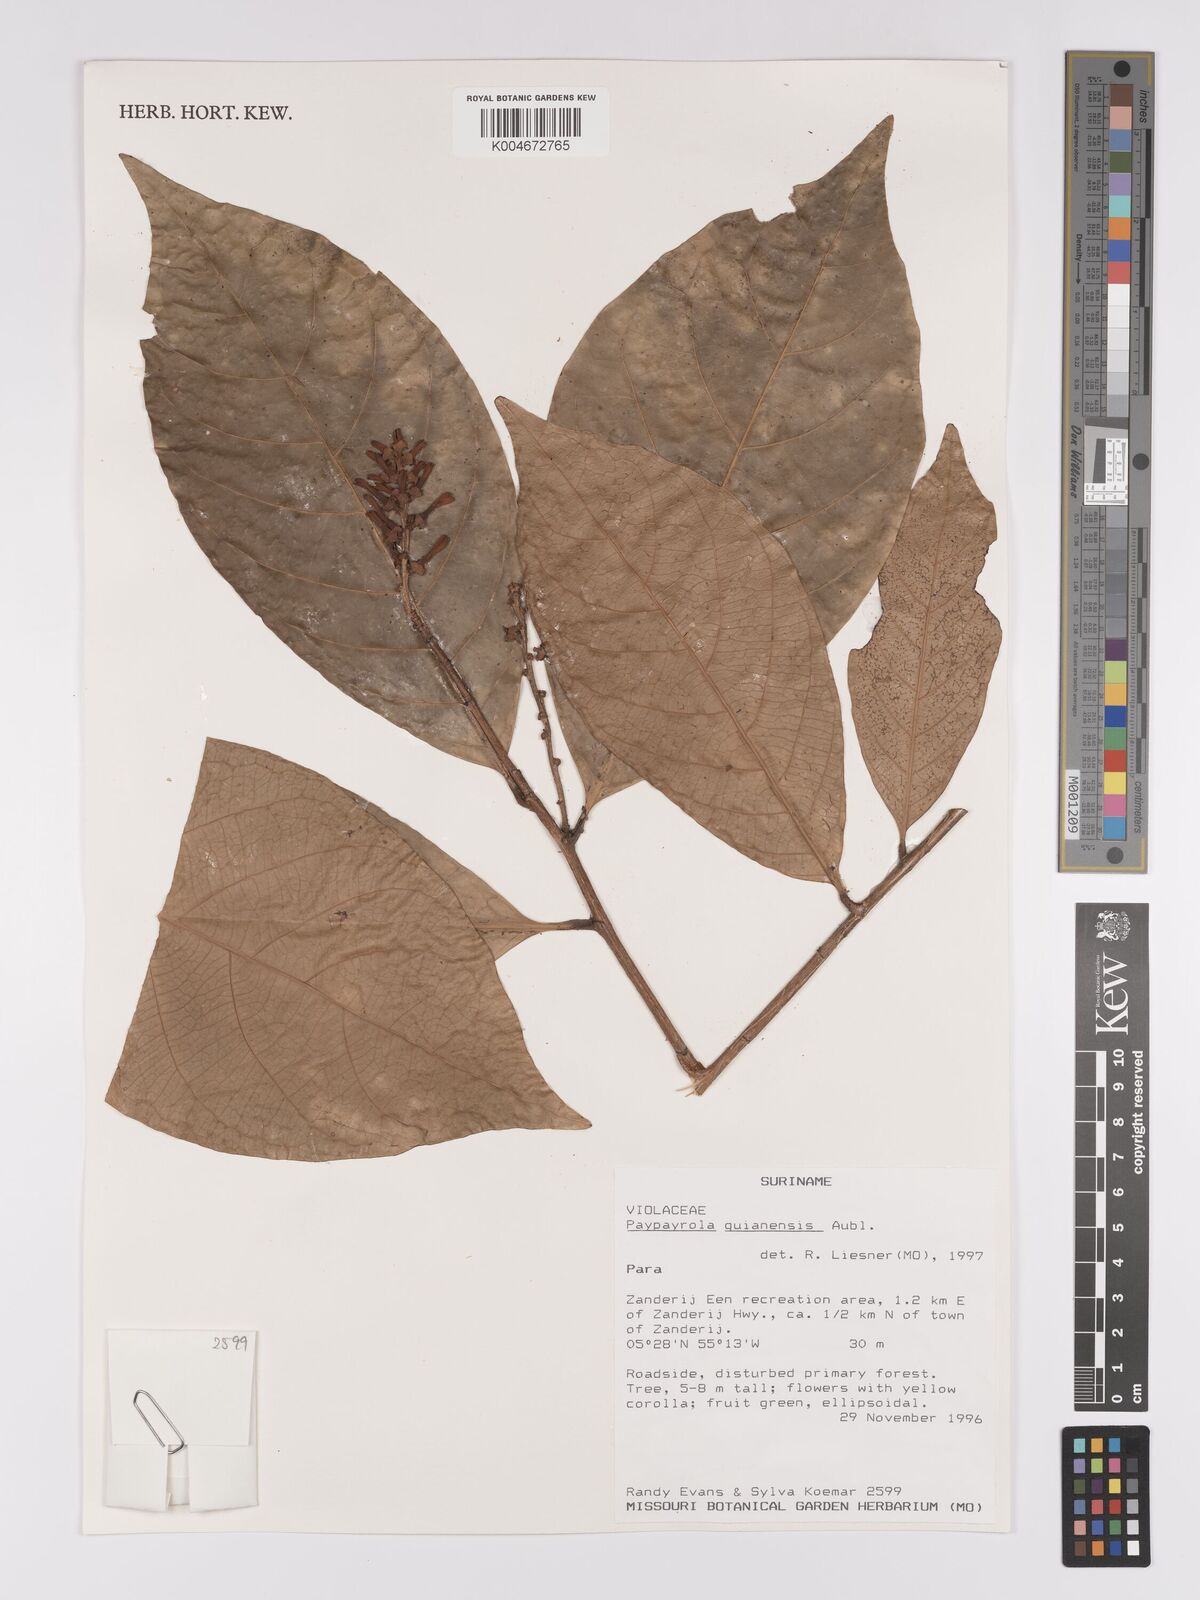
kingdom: Plantae
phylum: Tracheophyta
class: Magnoliopsida
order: Malpighiales
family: Violaceae
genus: Paypayrola
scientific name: Paypayrola guianensis
